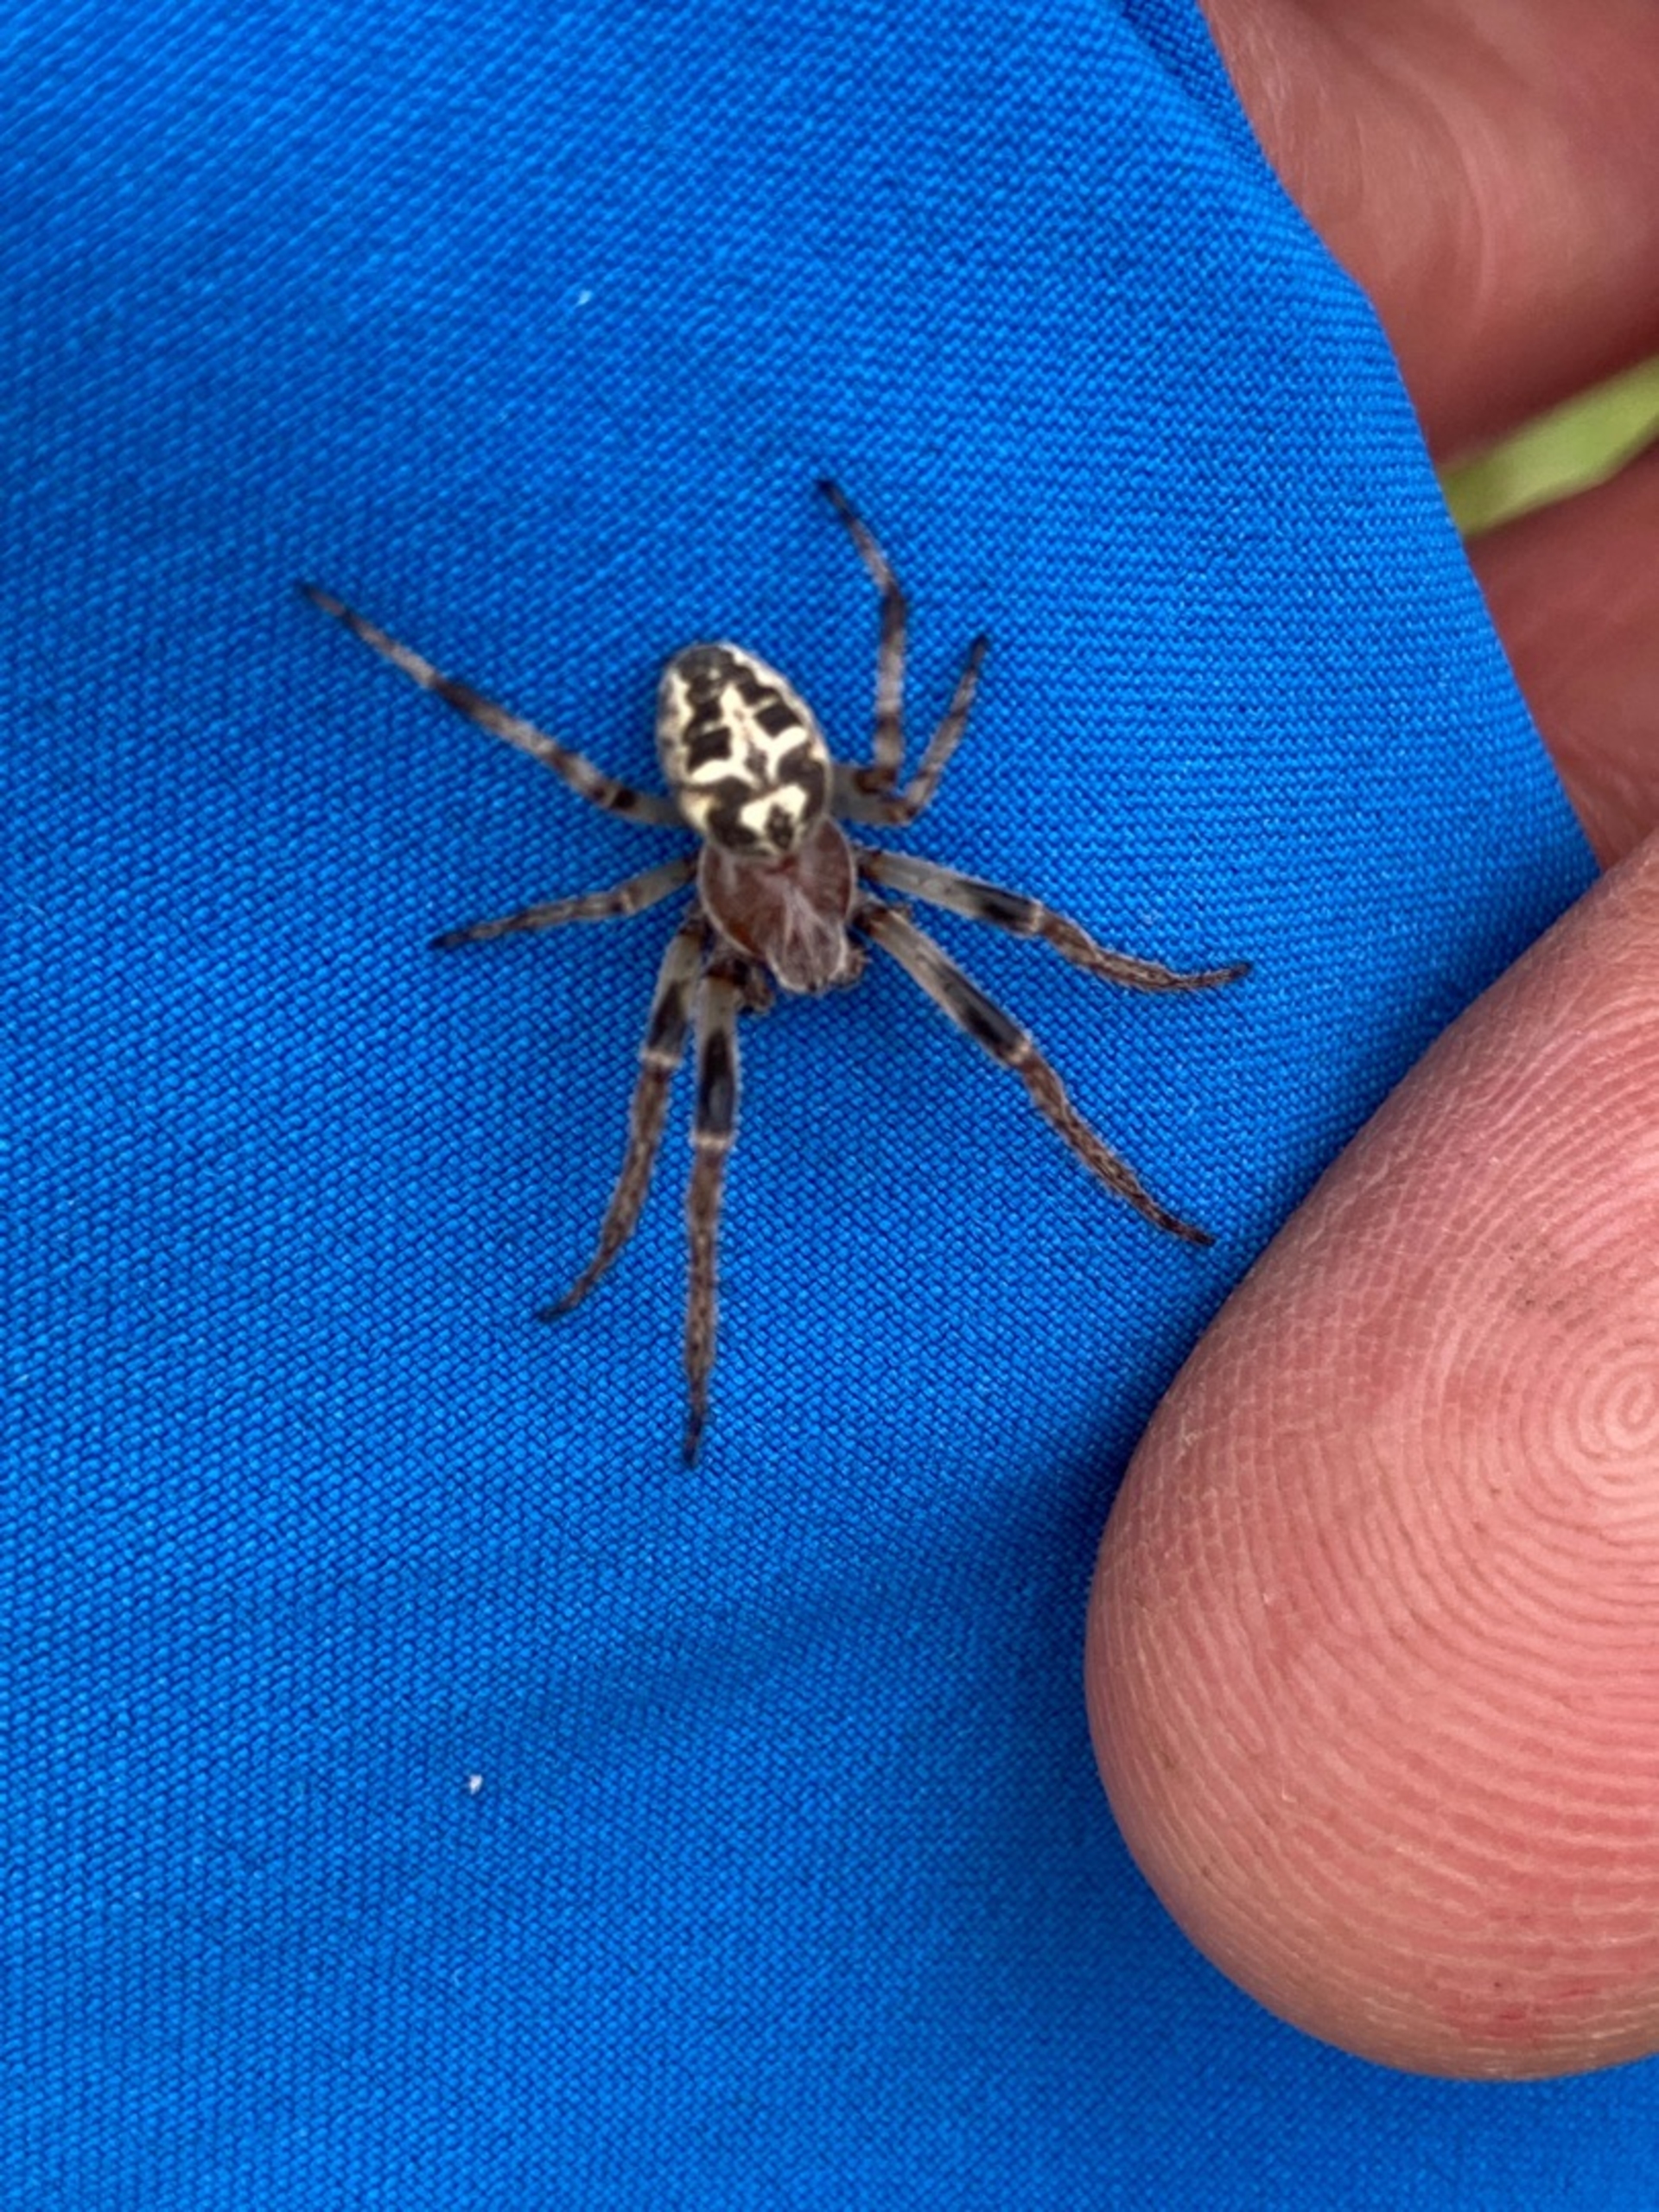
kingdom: Animalia
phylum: Arthropoda
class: Arachnida
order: Araneae
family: Araneidae
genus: Larinioides
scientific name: Larinioides cornutus
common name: Sivhjulspinder
